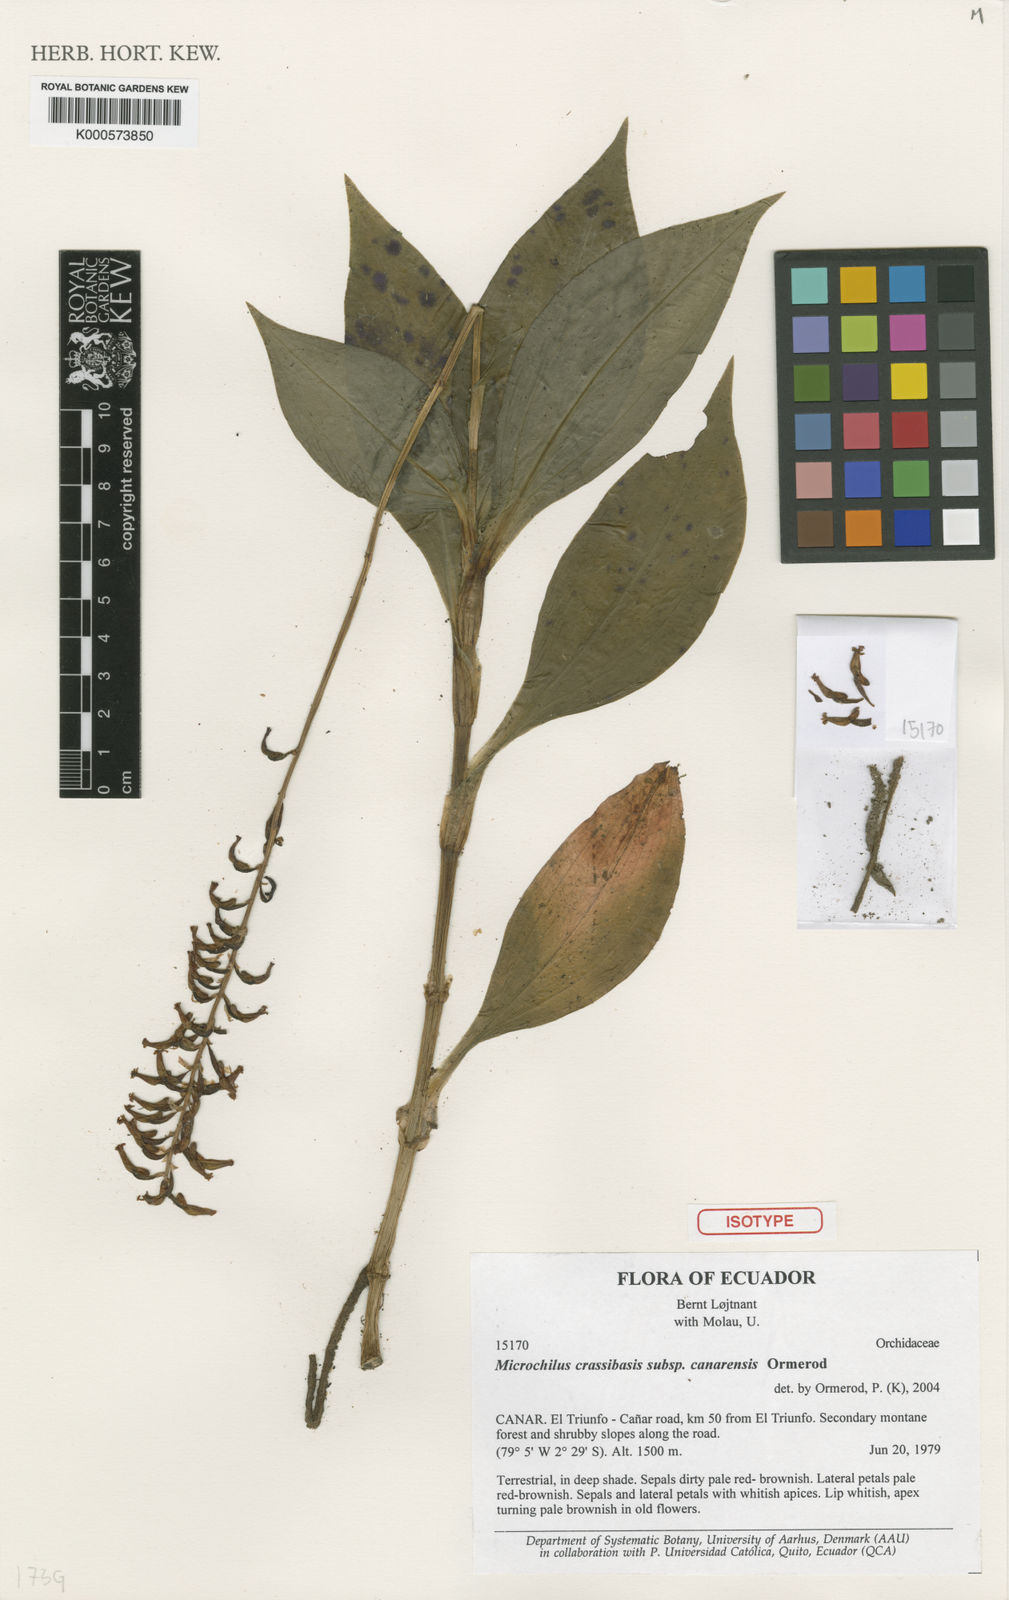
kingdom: Plantae
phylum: Tracheophyta
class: Liliopsida
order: Asparagales
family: Orchidaceae
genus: Microchilus
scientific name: Microchilus crassibasis
